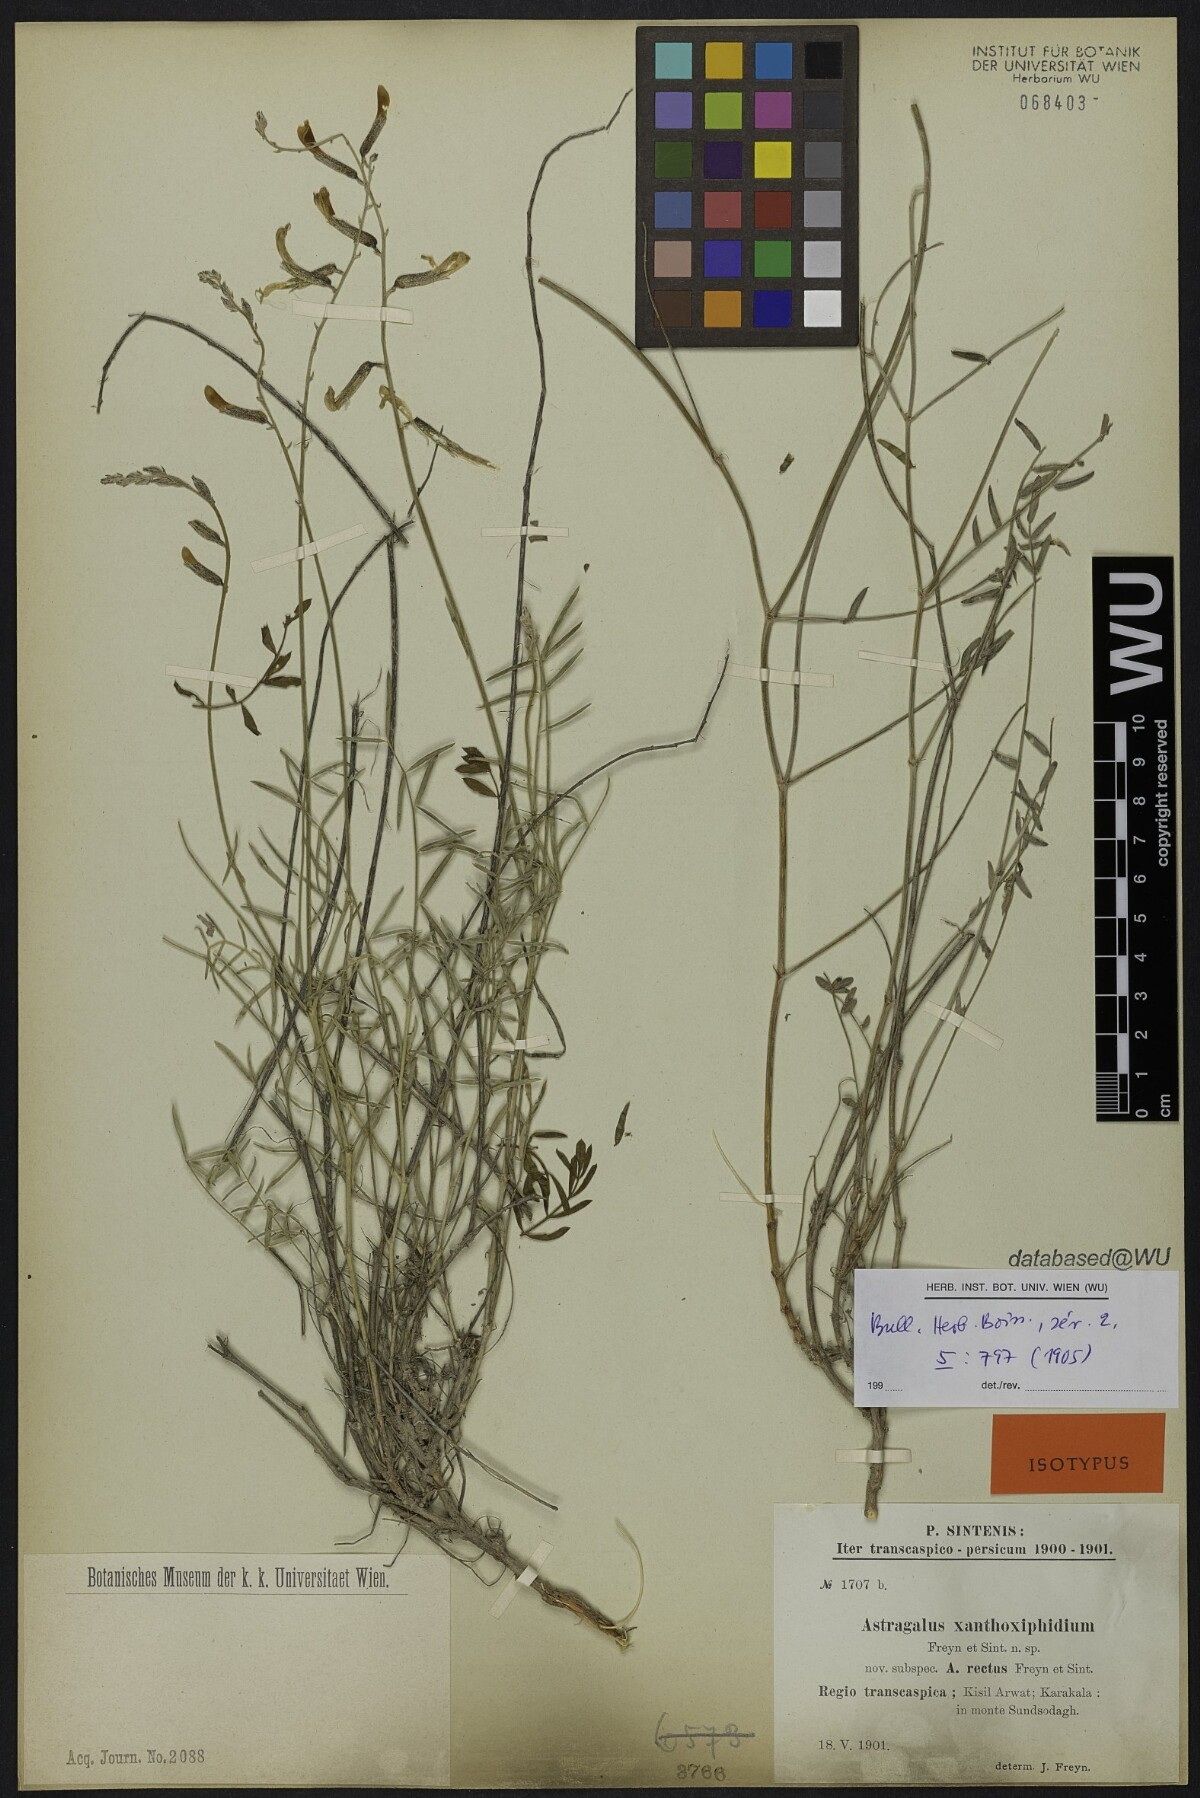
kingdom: Plantae
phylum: Tracheophyta
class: Magnoliopsida
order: Fabales
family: Fabaceae
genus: Astragalus
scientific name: Astragalus juratzkanus
